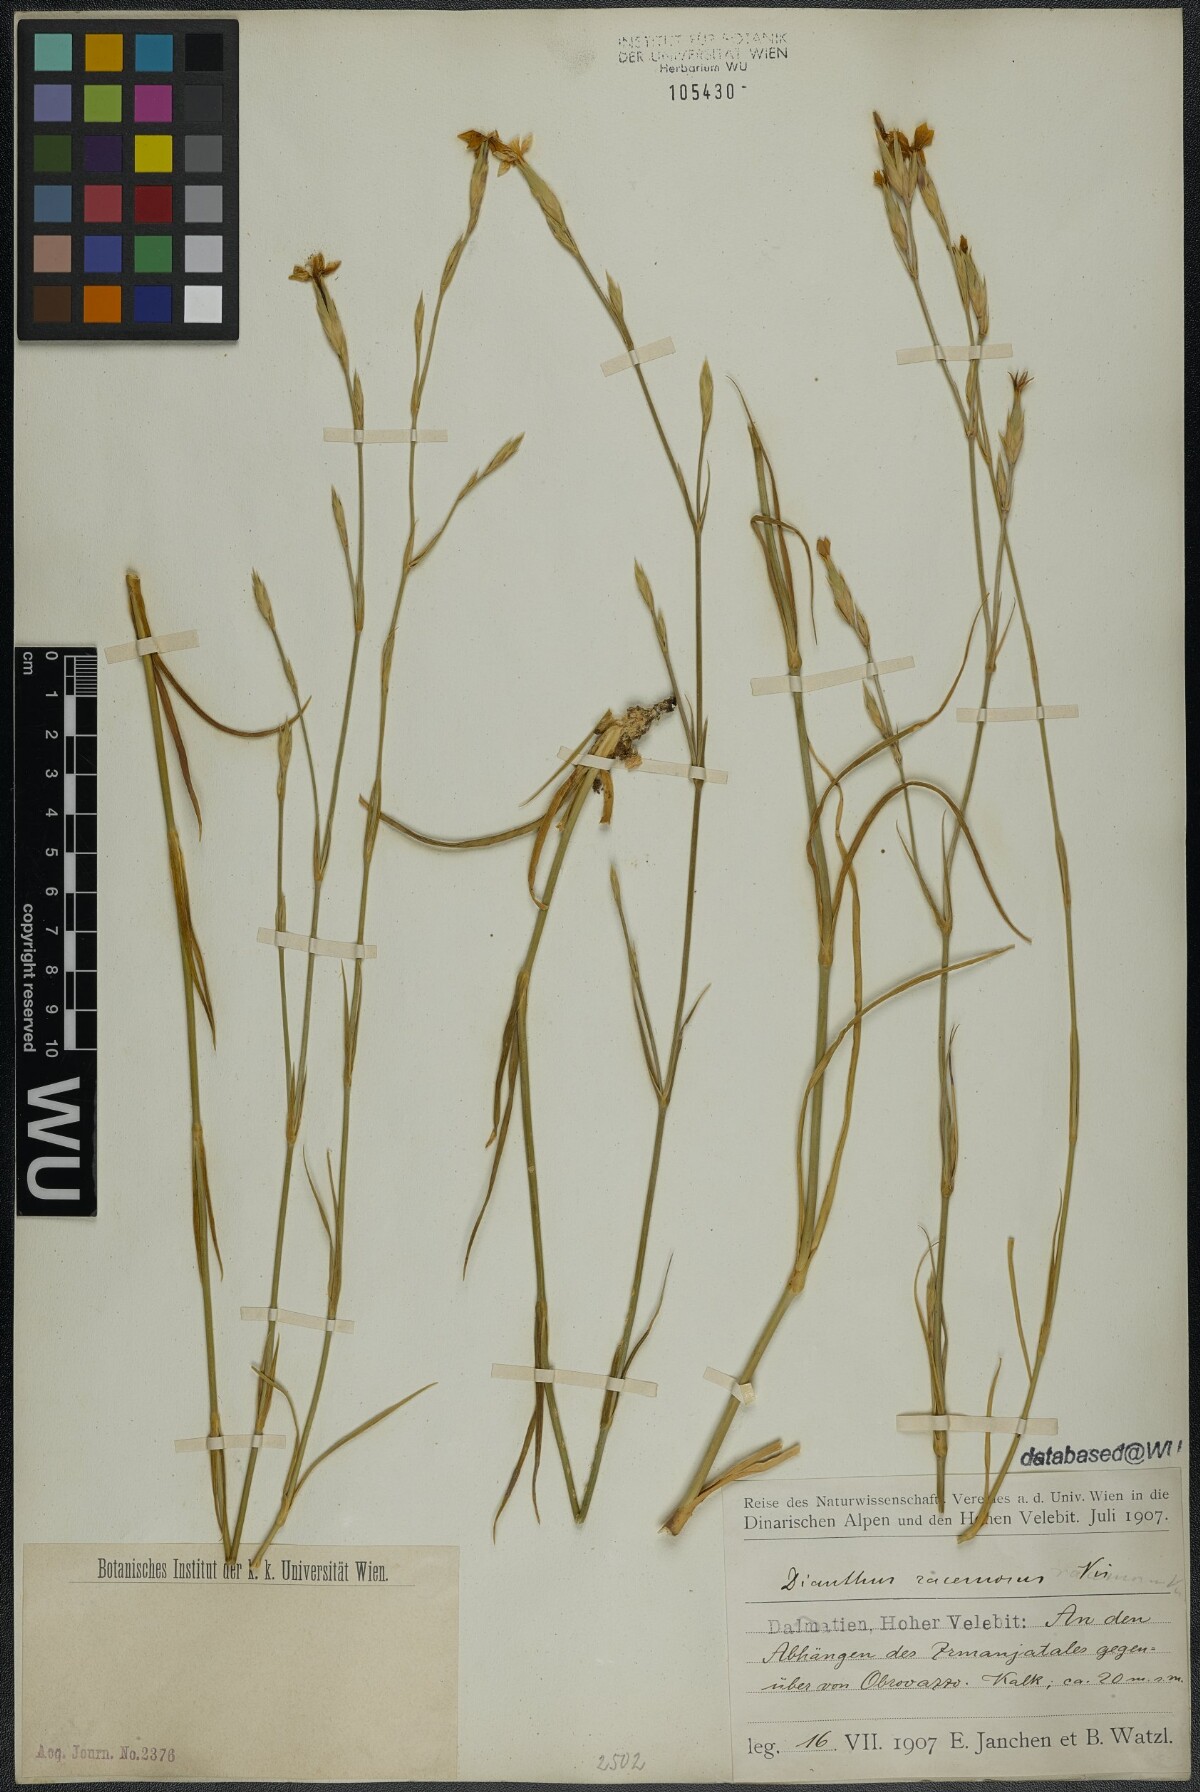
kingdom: Plantae
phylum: Tracheophyta
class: Magnoliopsida
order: Caryophyllales
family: Caryophyllaceae
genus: Dianthus
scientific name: Dianthus ciliatus
